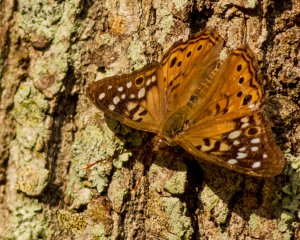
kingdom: Animalia
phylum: Arthropoda
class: Insecta
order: Lepidoptera
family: Nymphalidae
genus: Asterocampa
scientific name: Asterocampa celtis
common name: Hackberry Emperor
